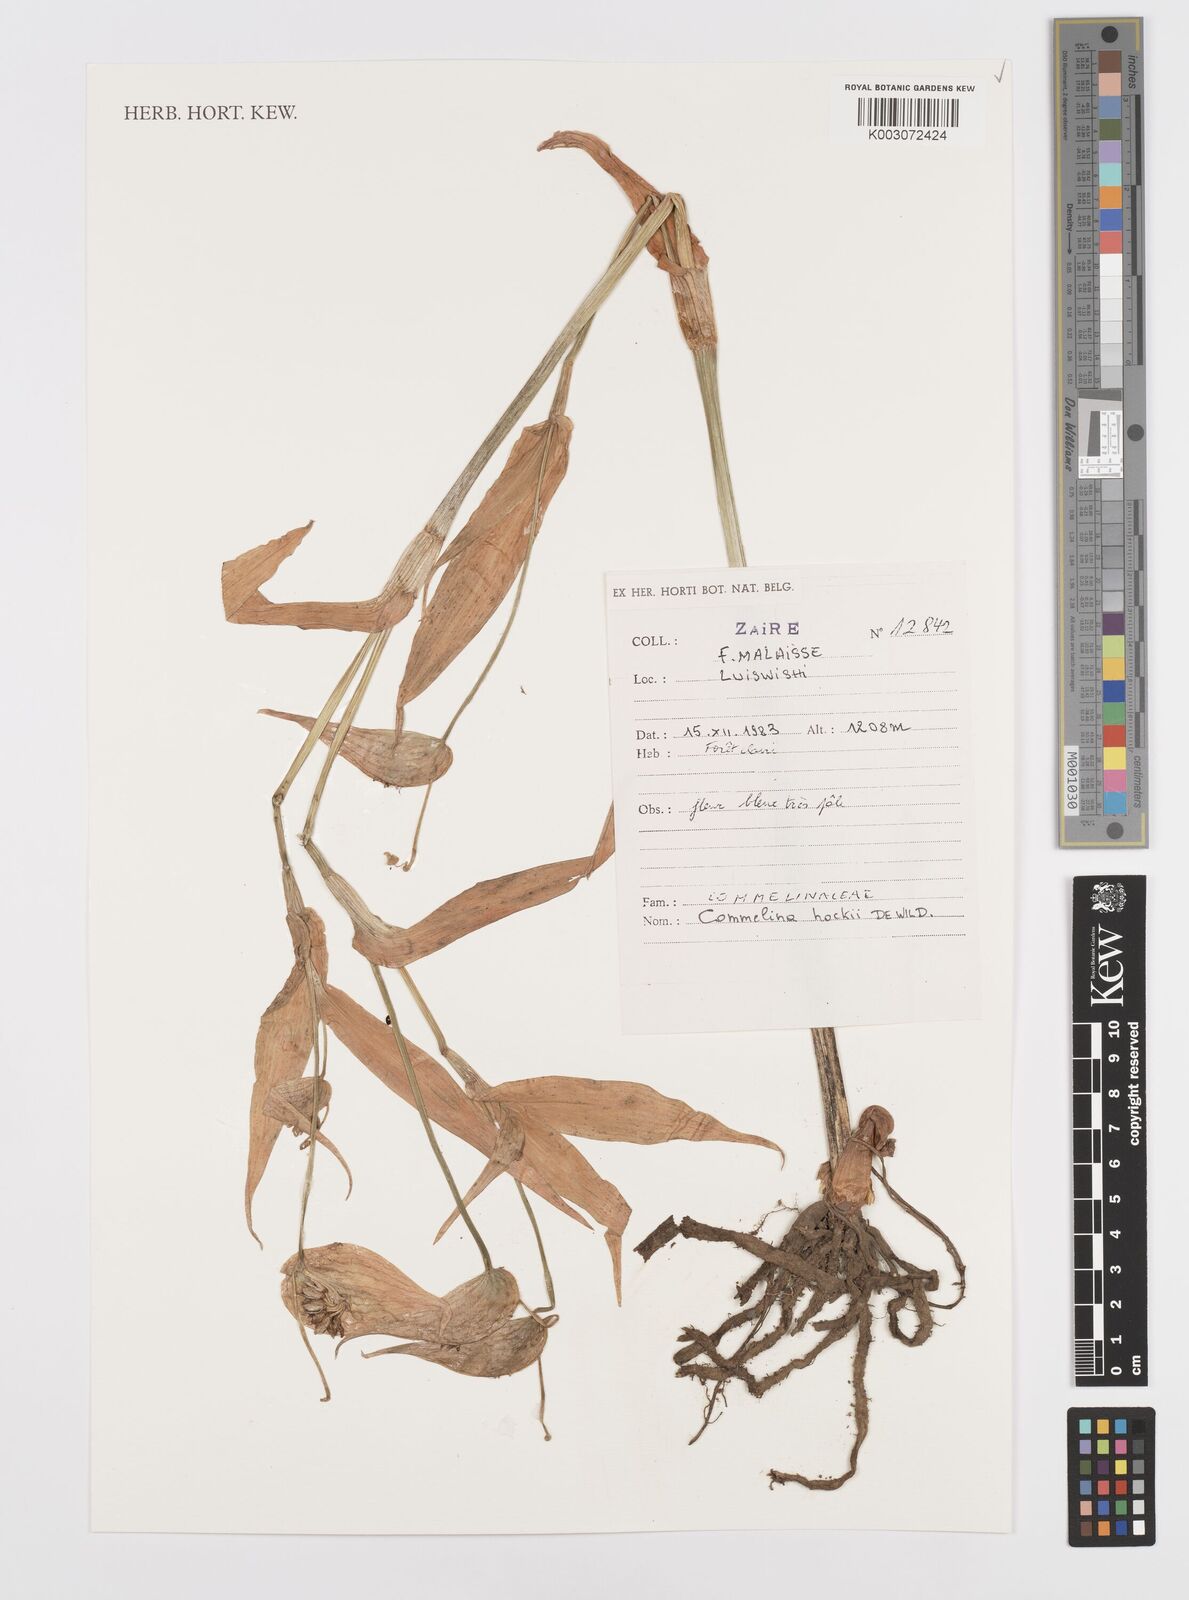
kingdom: Plantae
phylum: Tracheophyta
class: Liliopsida
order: Commelinales
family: Commelinaceae
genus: Commelina
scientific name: Commelina hockii
